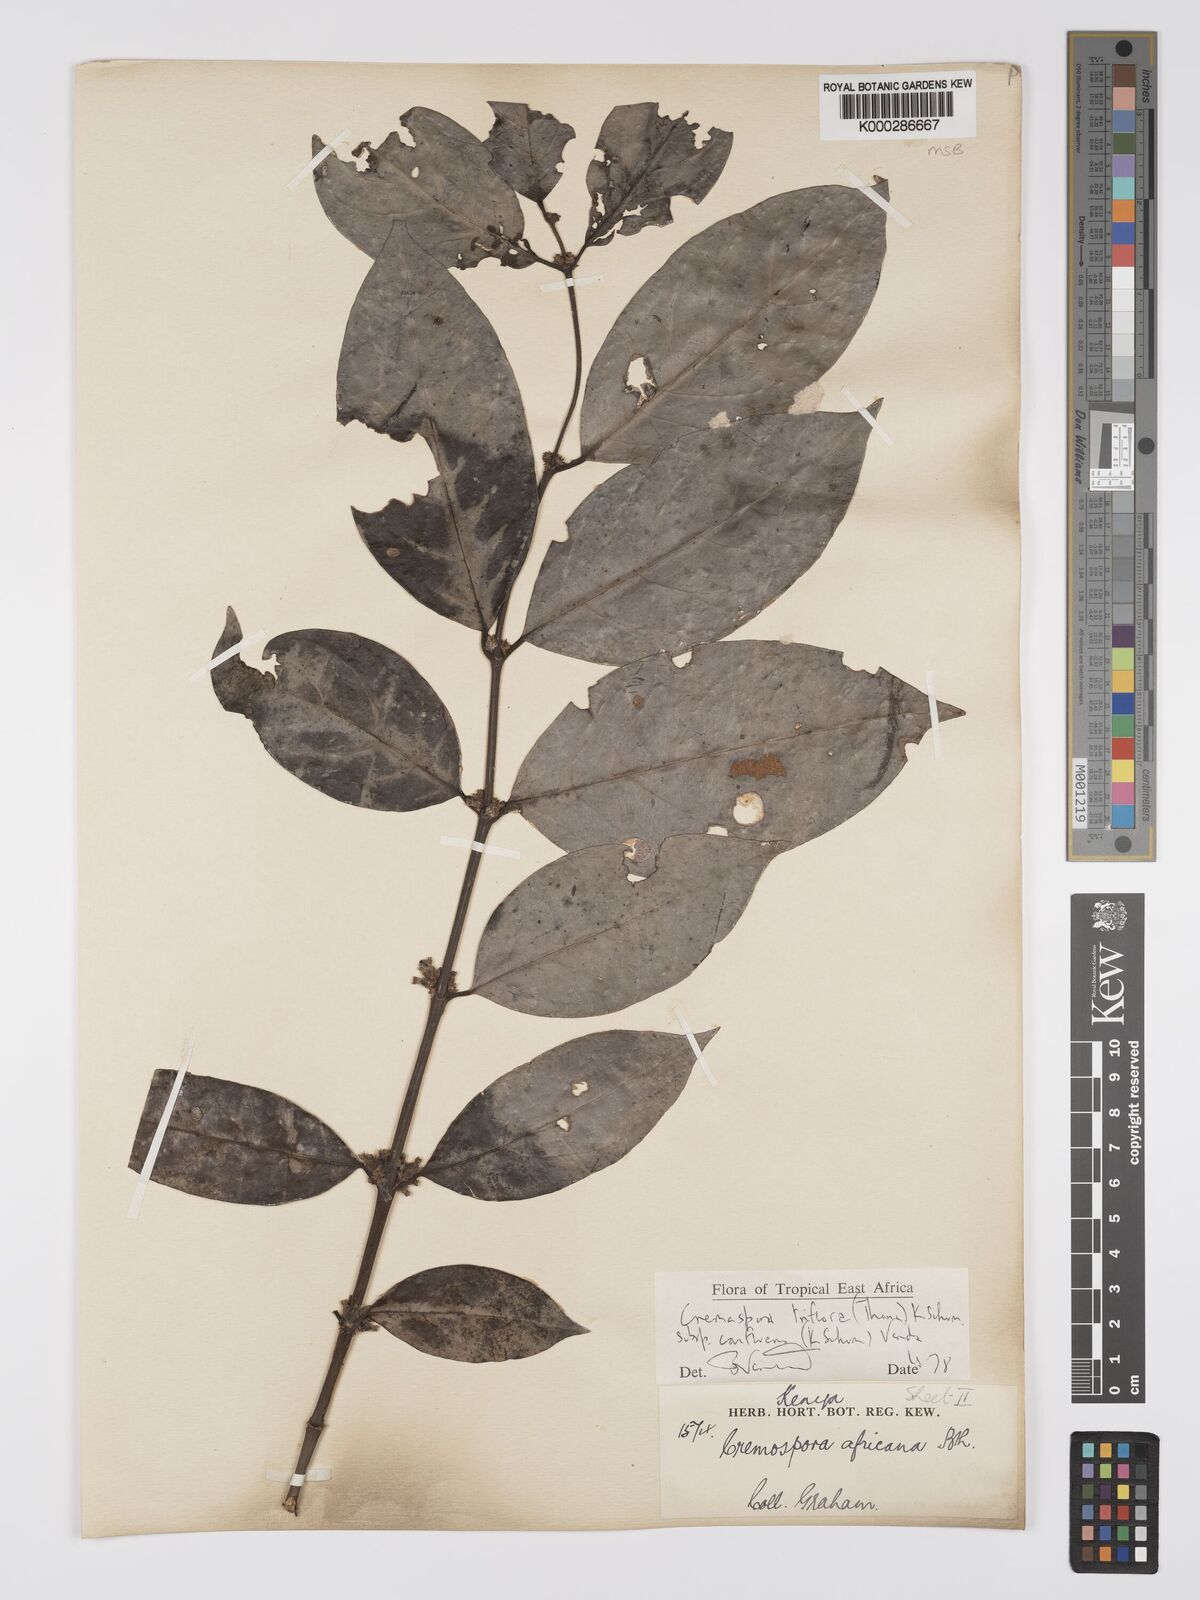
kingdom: Plantae
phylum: Tracheophyta
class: Magnoliopsida
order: Gentianales
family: Rubiaceae
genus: Cremaspora
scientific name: Cremaspora triflora
